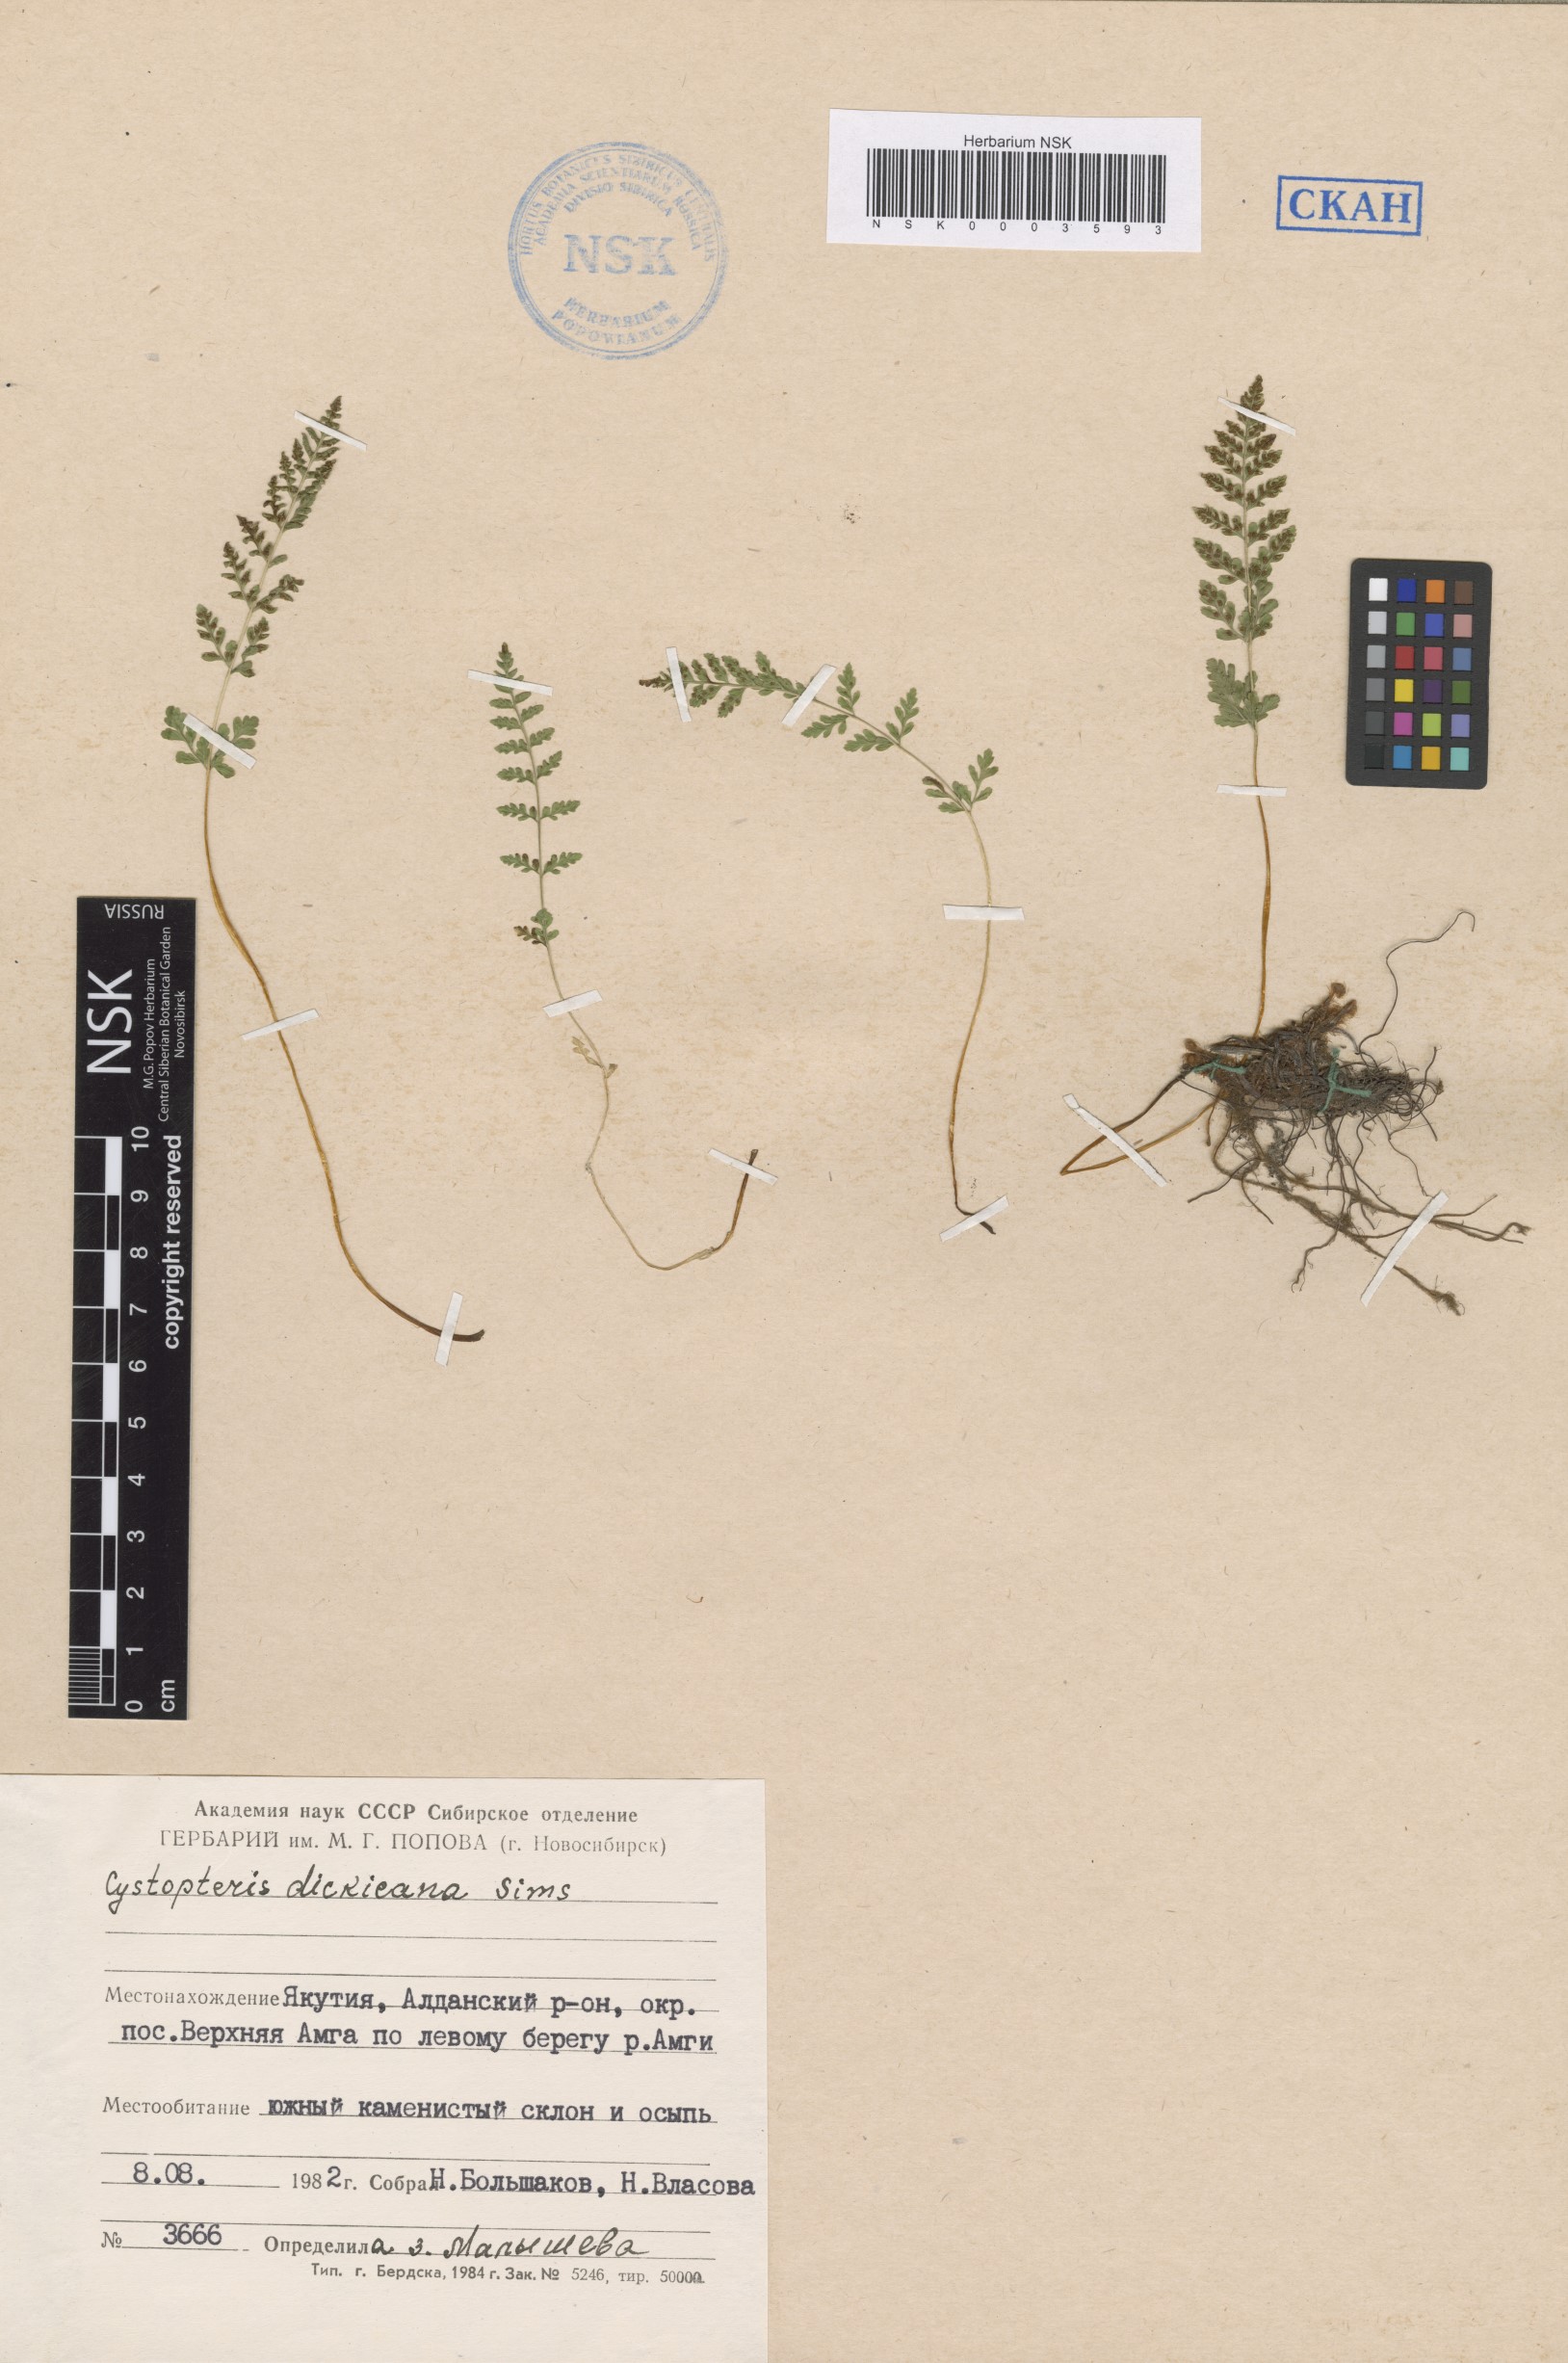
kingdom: Plantae
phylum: Tracheophyta
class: Polypodiopsida
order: Polypodiales
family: Cystopteridaceae
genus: Cystopteris
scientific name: Cystopteris dickieana
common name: Dickie's bladder-fern
